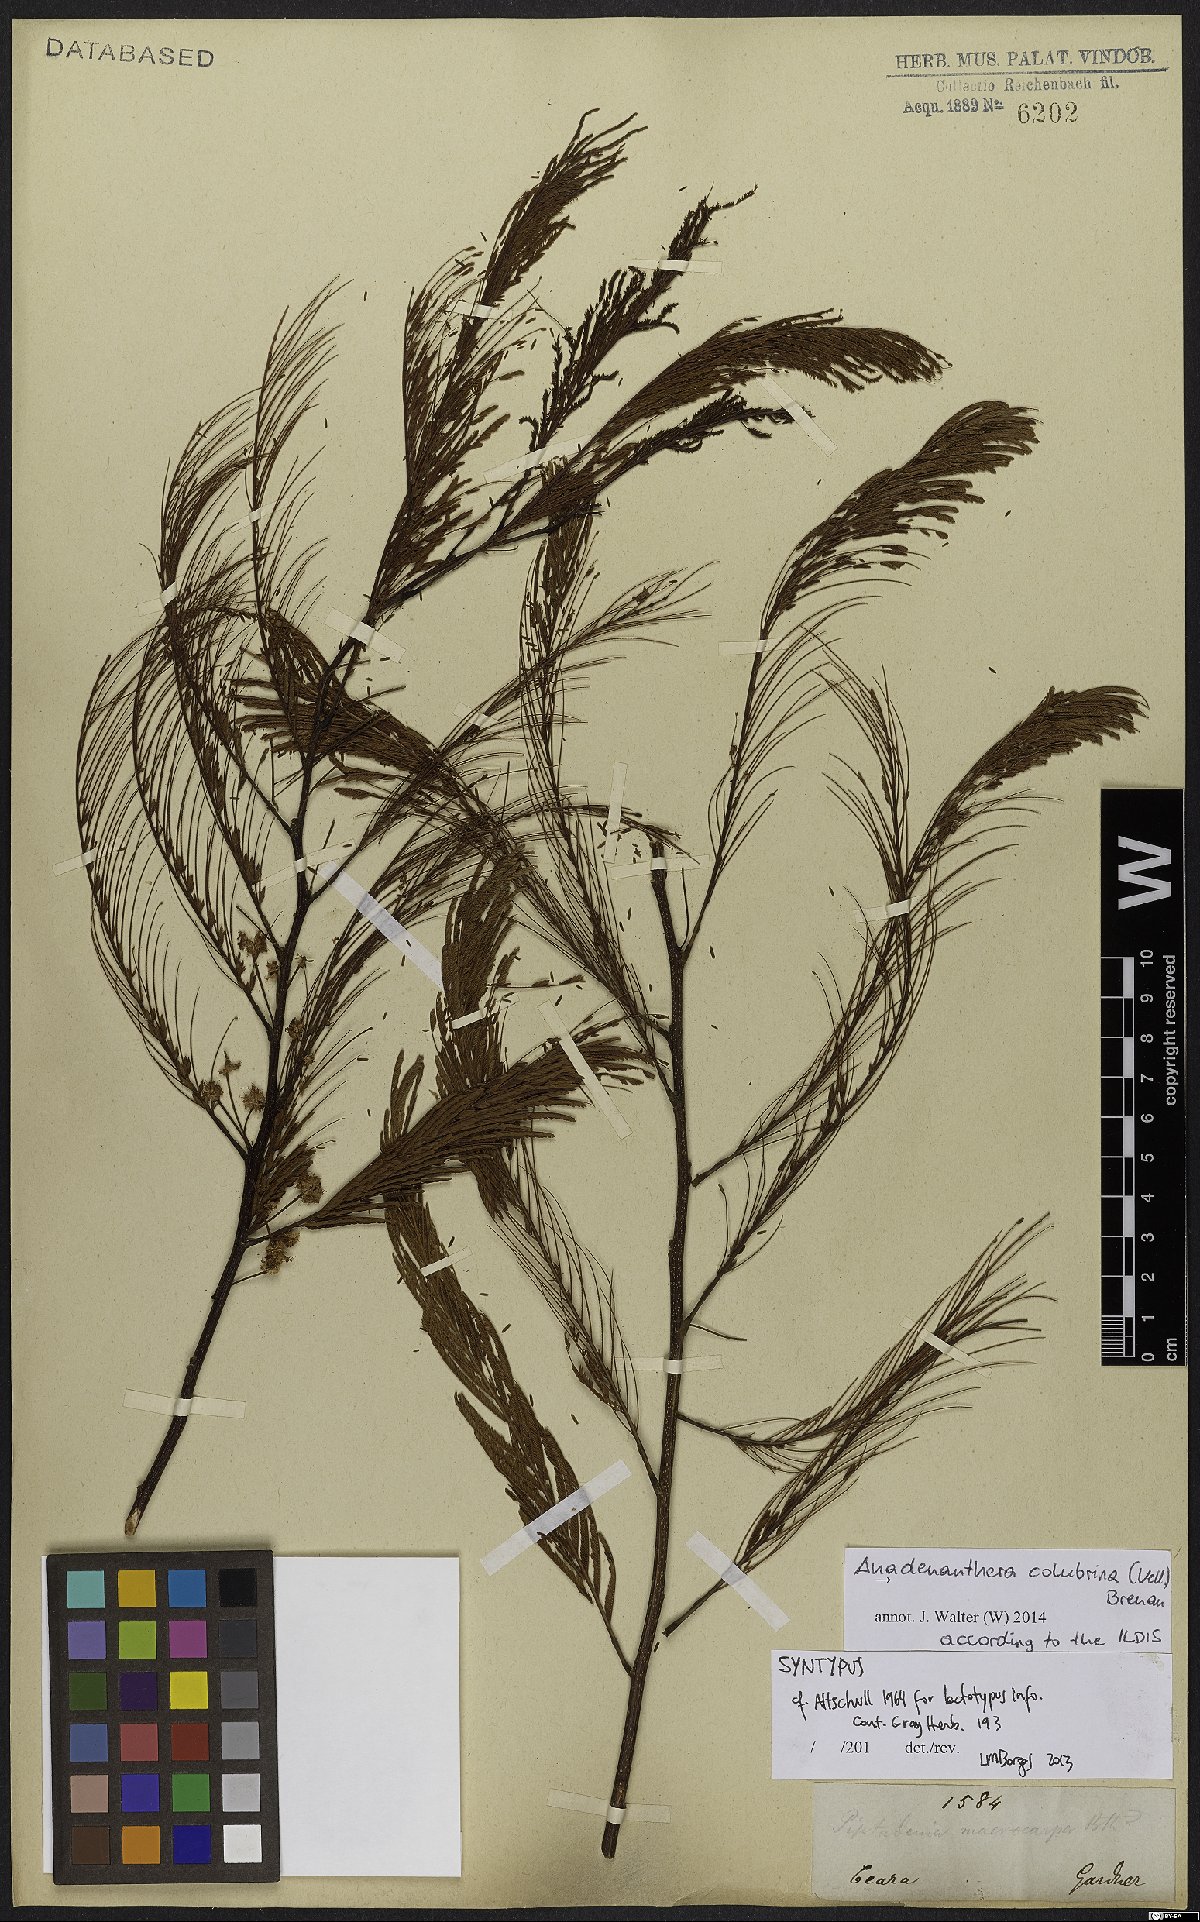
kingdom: Plantae
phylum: Tracheophyta
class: Magnoliopsida
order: Fabales
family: Fabaceae
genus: Anadenanthera
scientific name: Anadenanthera colubrina
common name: Curupay
